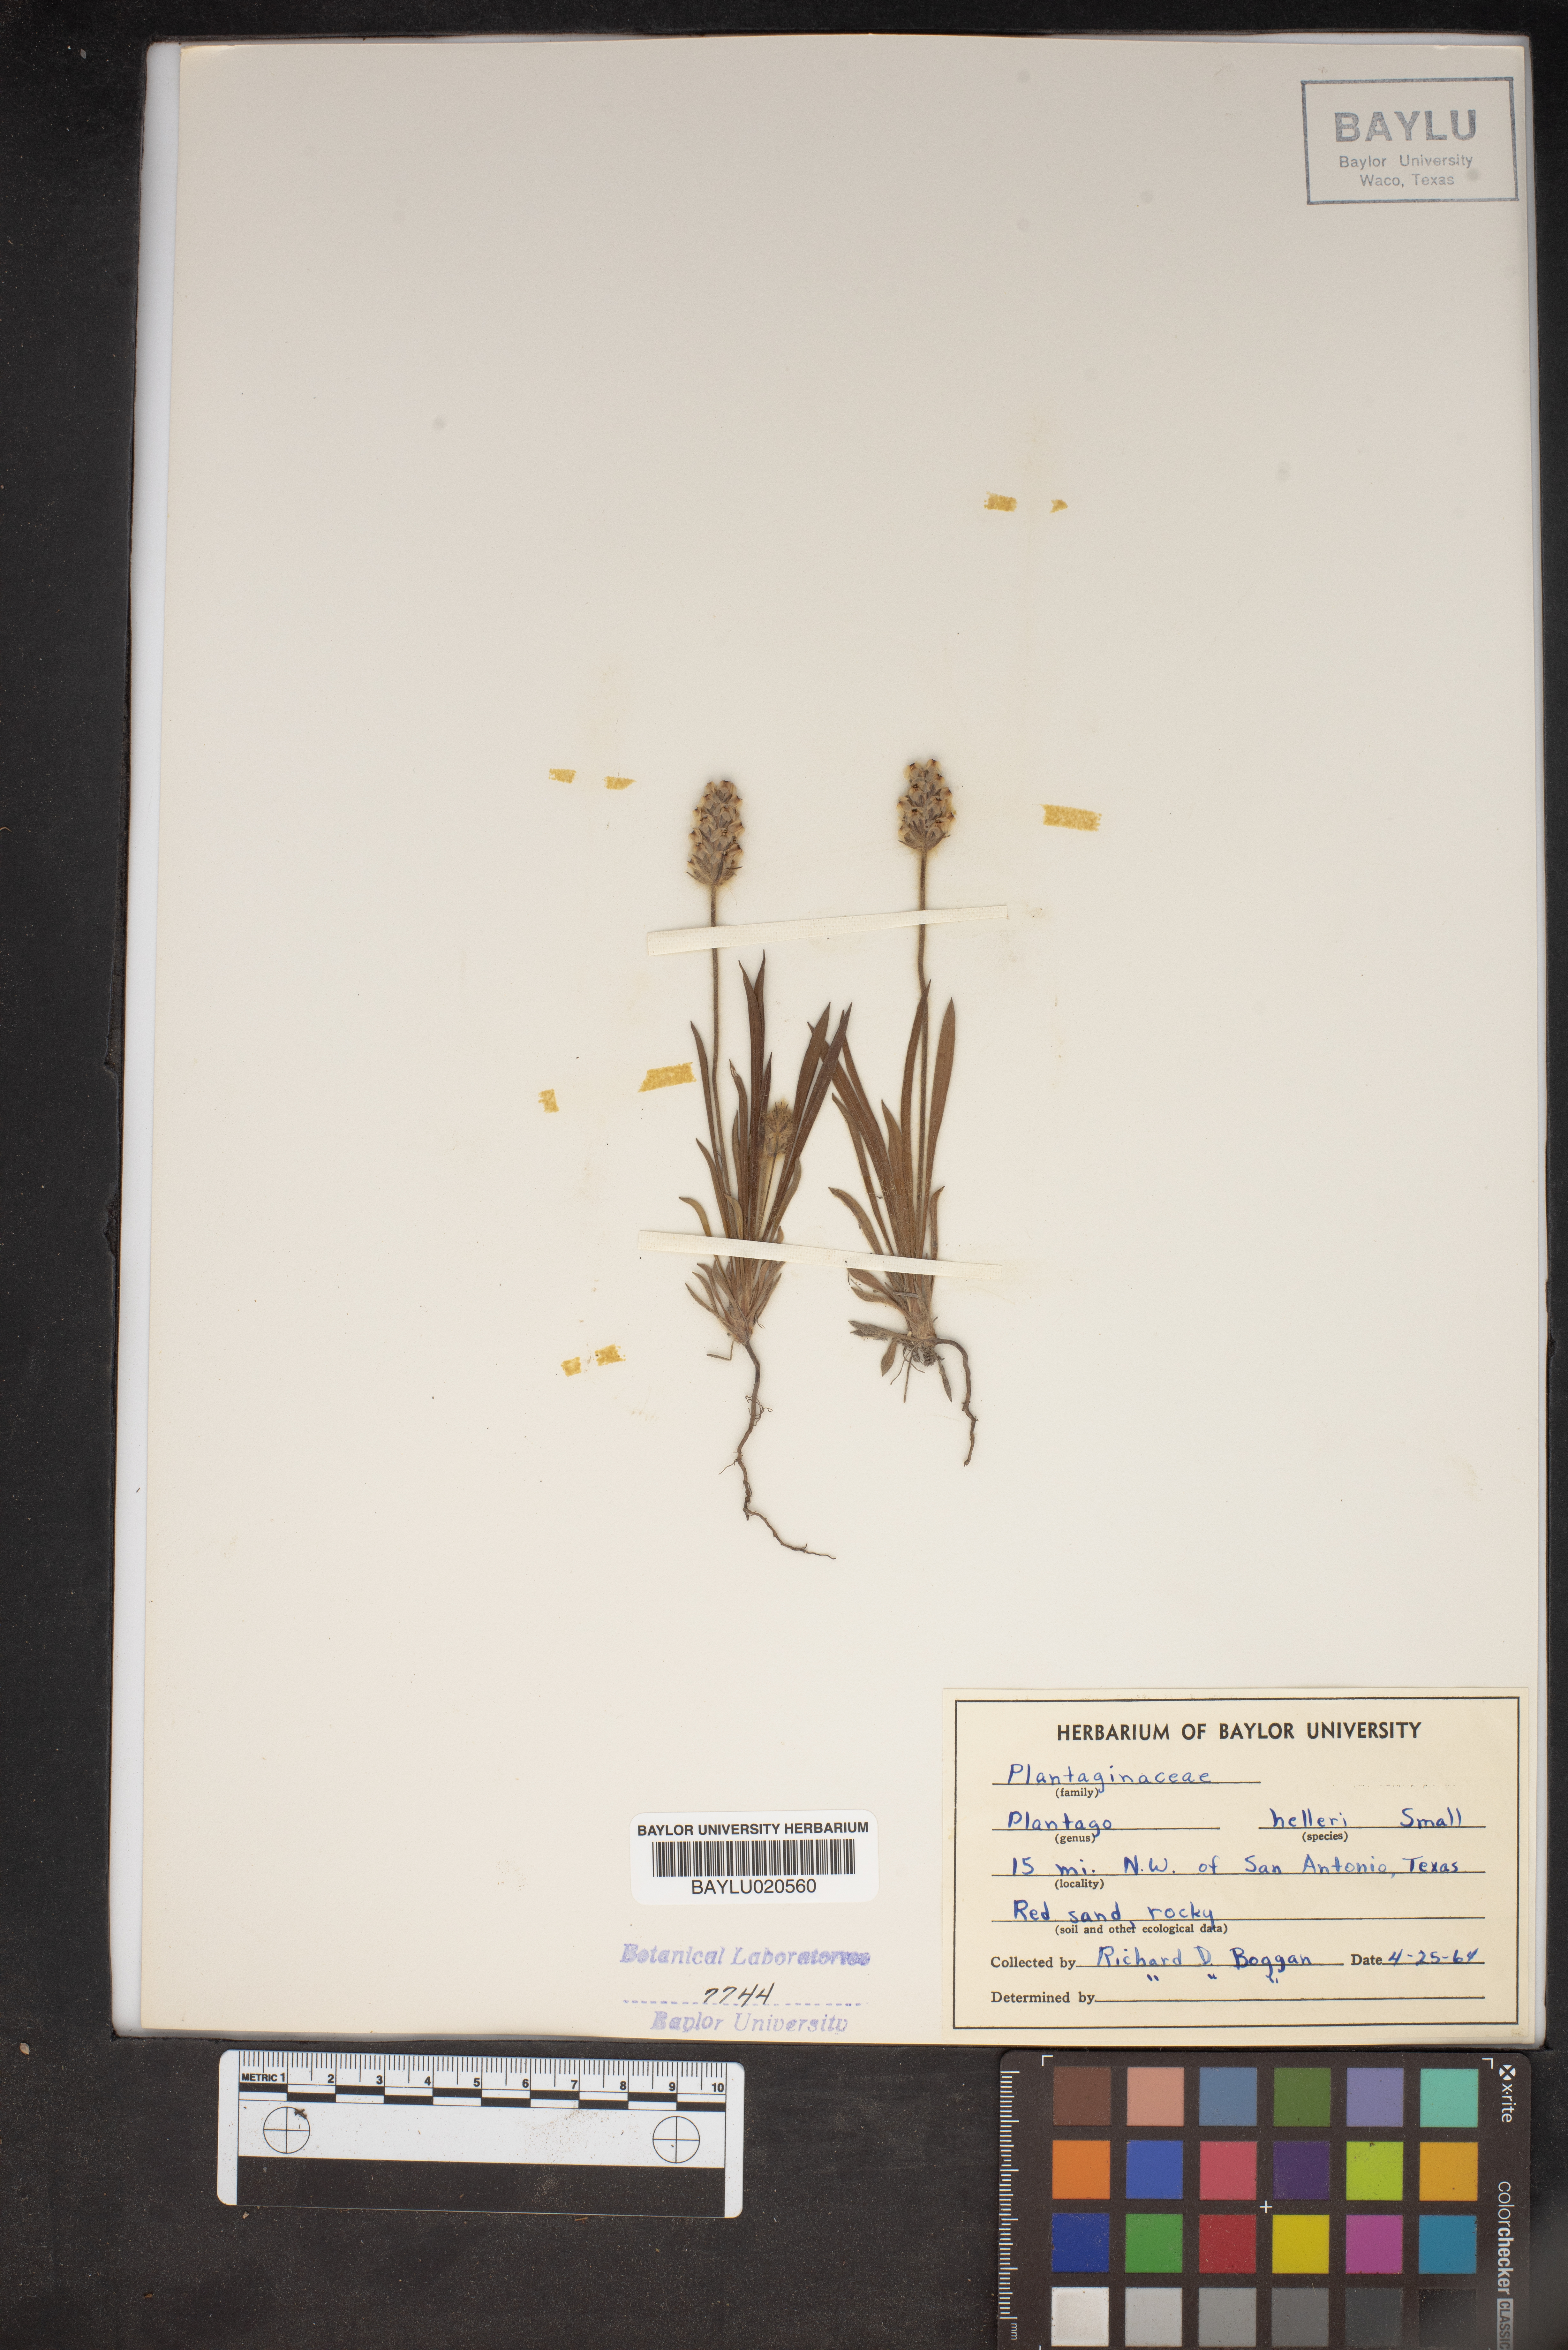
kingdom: Plantae
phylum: Tracheophyta
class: Magnoliopsida
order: Lamiales
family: Plantaginaceae
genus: Plantago
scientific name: Plantago helleri
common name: Heller's plantain
